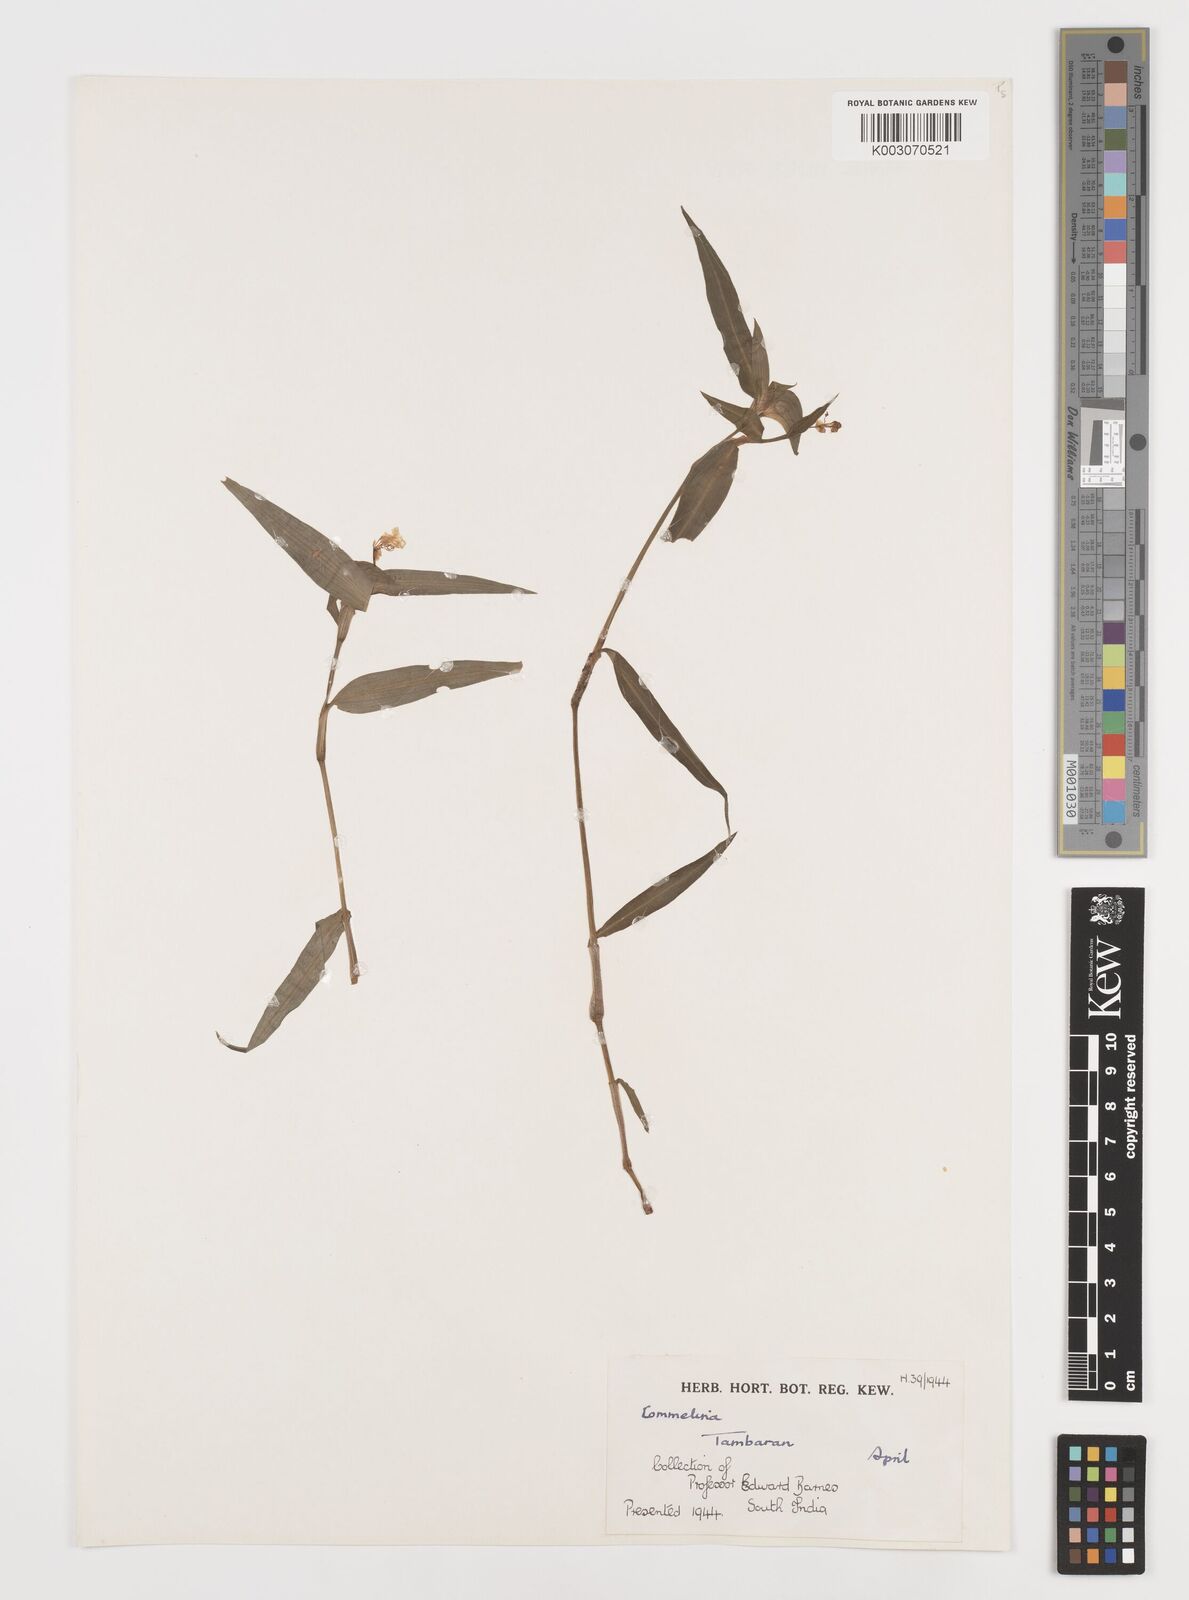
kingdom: Plantae
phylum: Tracheophyta
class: Liliopsida
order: Commelinales
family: Commelinaceae
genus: Commelina
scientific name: Commelina
